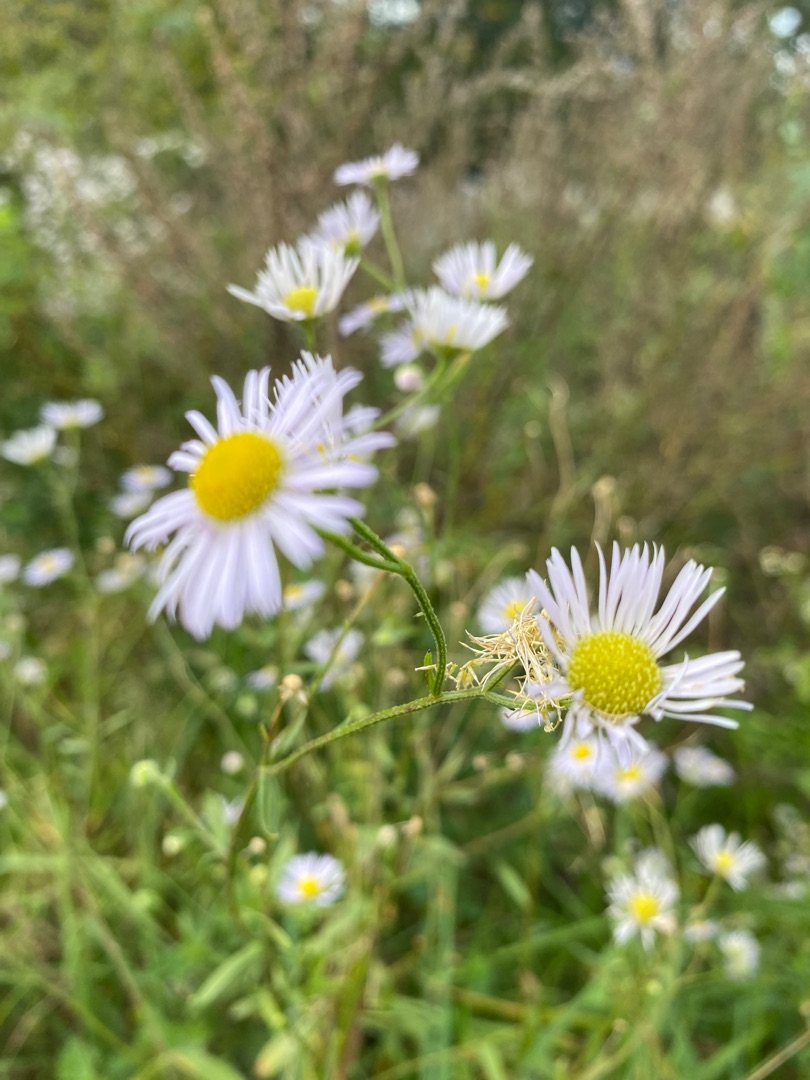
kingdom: Plantae
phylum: Tracheophyta
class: Magnoliopsida
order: Asterales
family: Asteraceae
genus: Erigeron
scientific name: Erigeron annuus
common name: Smalstråle
